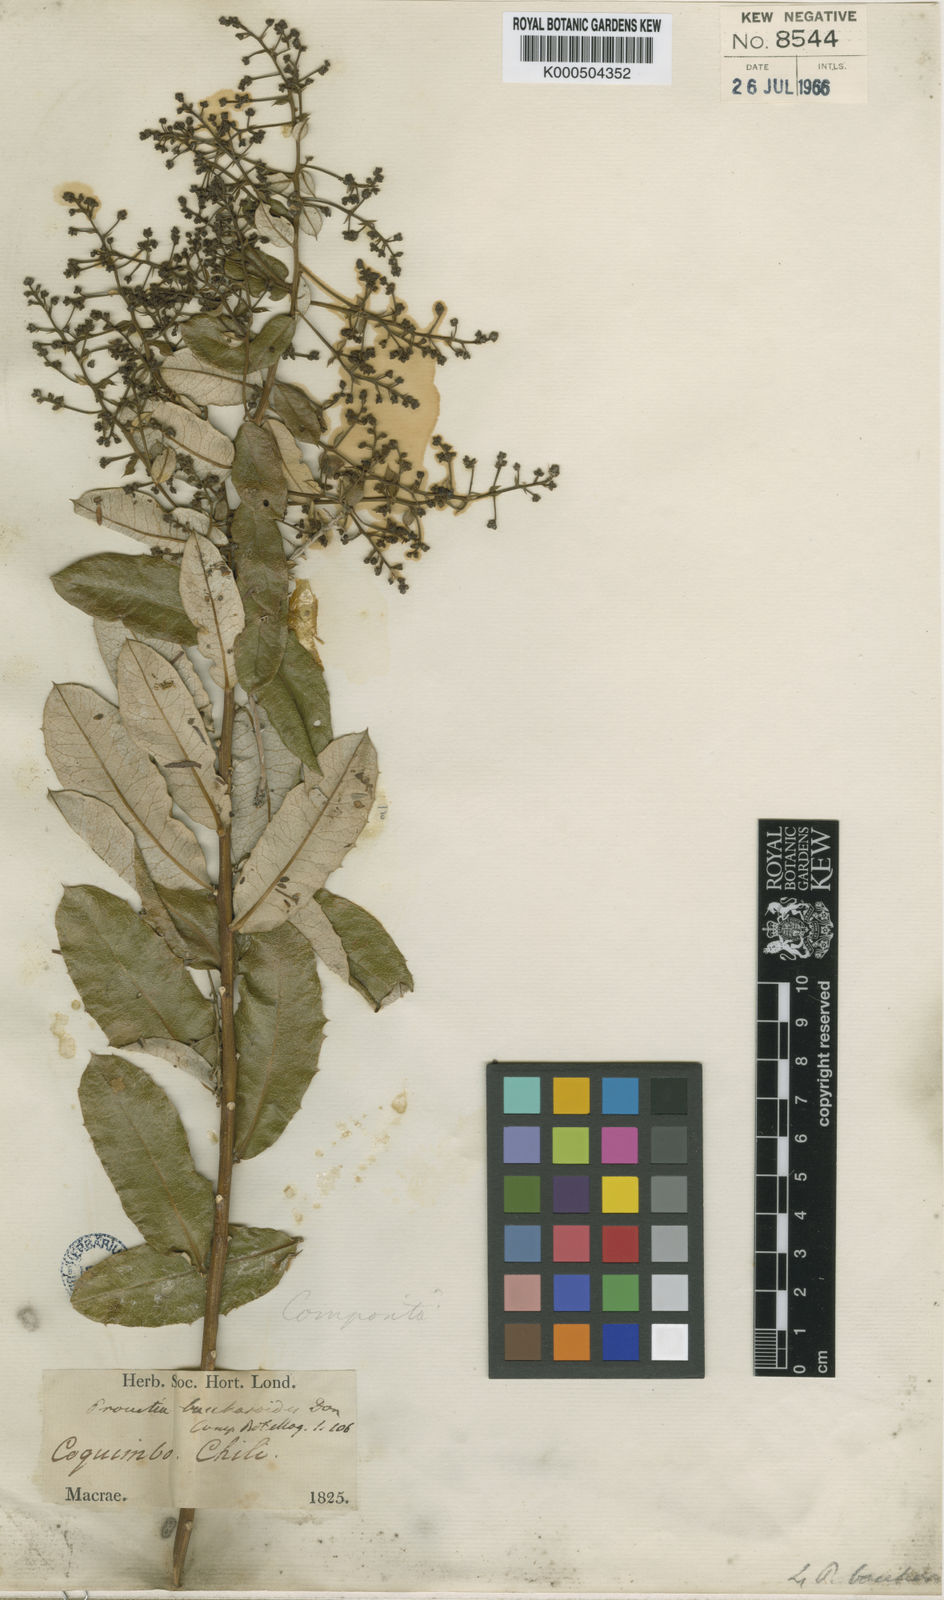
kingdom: Plantae
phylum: Tracheophyta
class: Magnoliopsida
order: Asterales
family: Asteraceae
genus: Spinoliva
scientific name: Spinoliva ilicifolia
